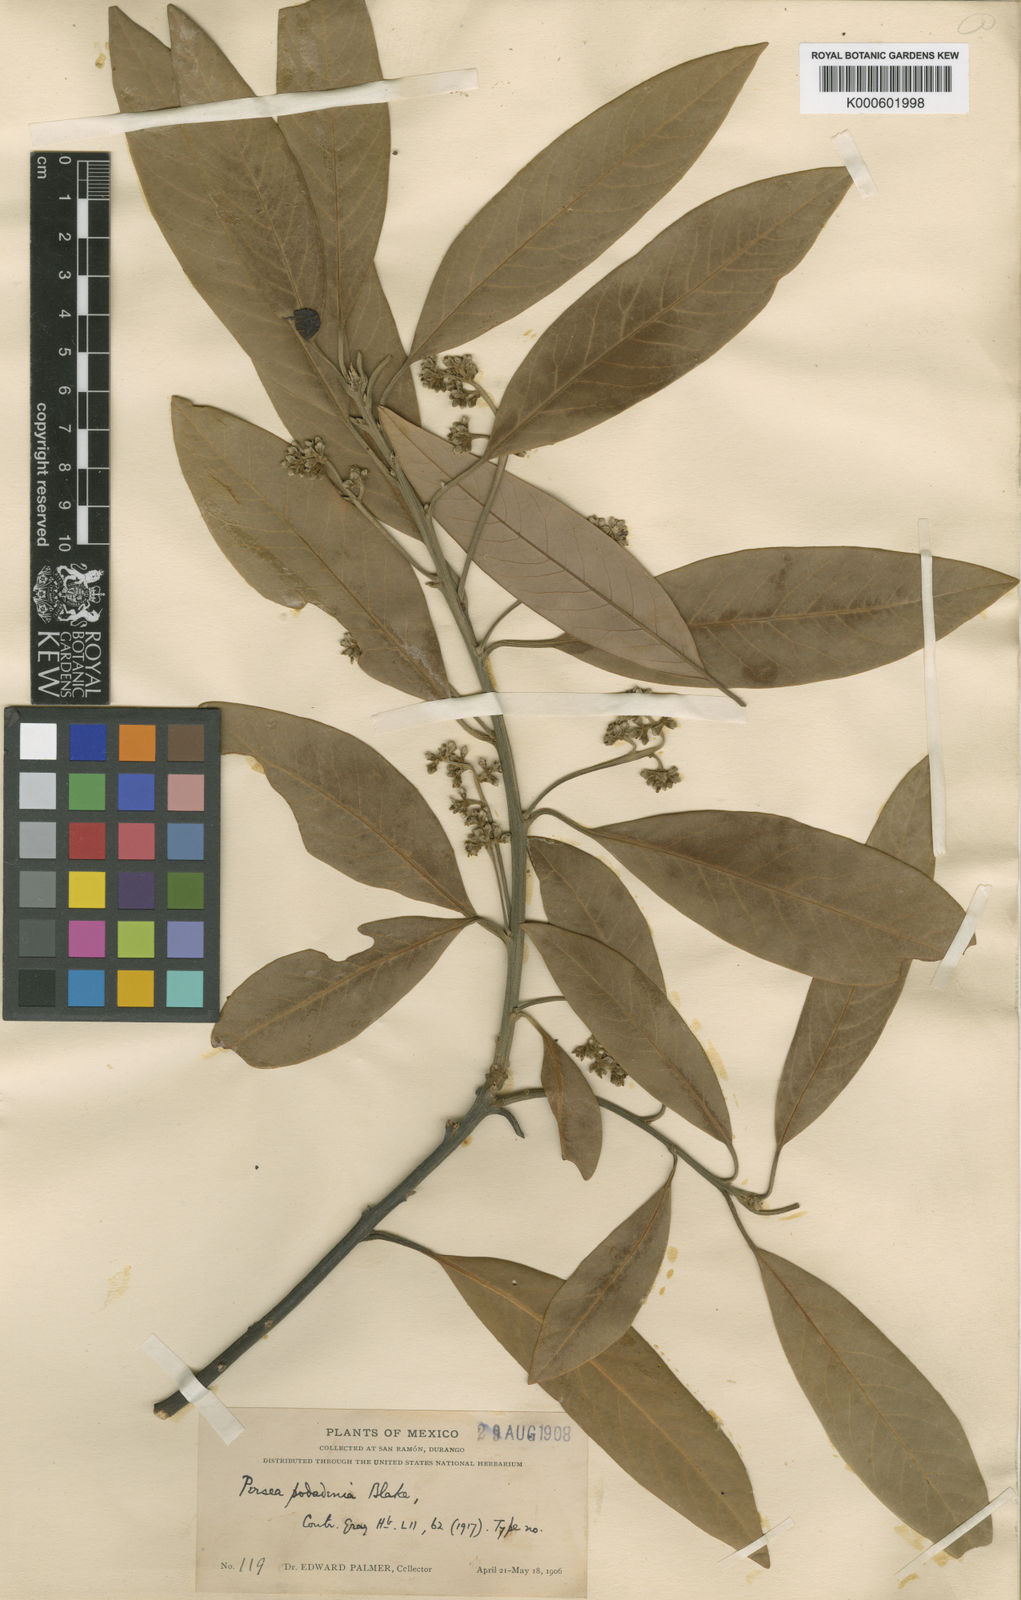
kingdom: Plantae
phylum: Tracheophyta
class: Magnoliopsida
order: Laurales
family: Lauraceae
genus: Persea
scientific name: Persea liebmannii
